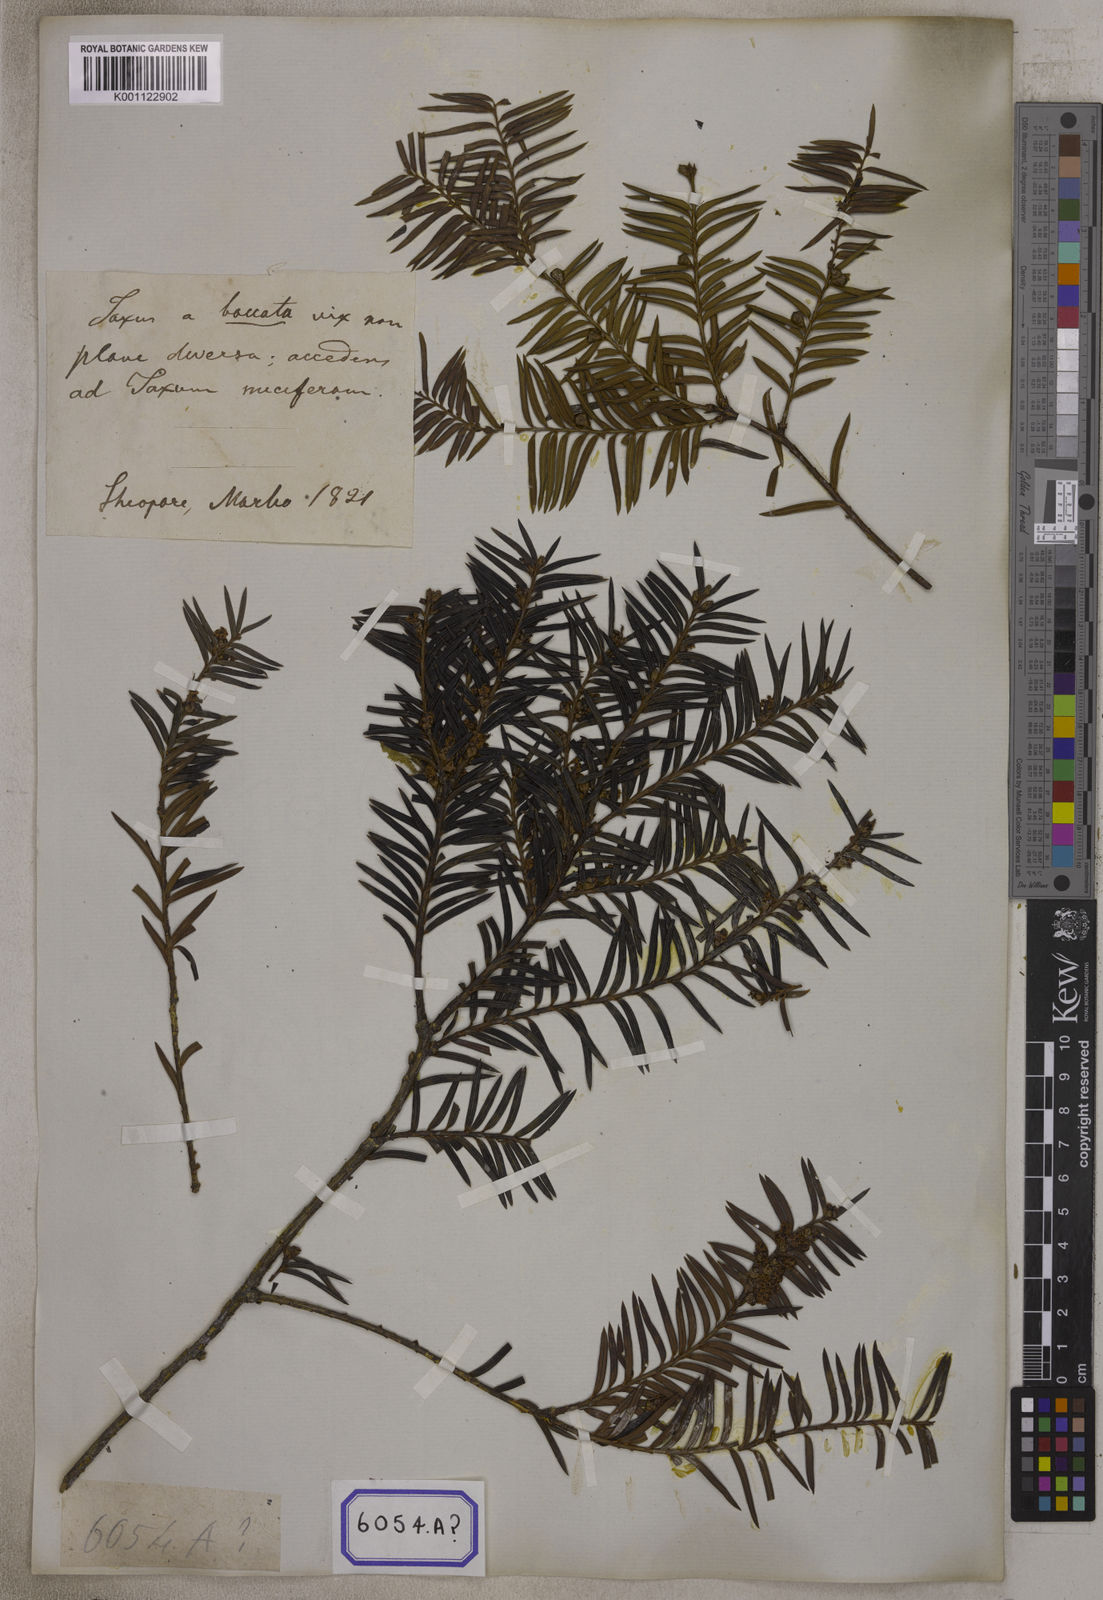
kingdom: Plantae
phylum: Tracheophyta
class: Pinopsida
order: Pinales
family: Taxaceae
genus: Torreya
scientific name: Torreya nucifera
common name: Japanese nutmeg tree
